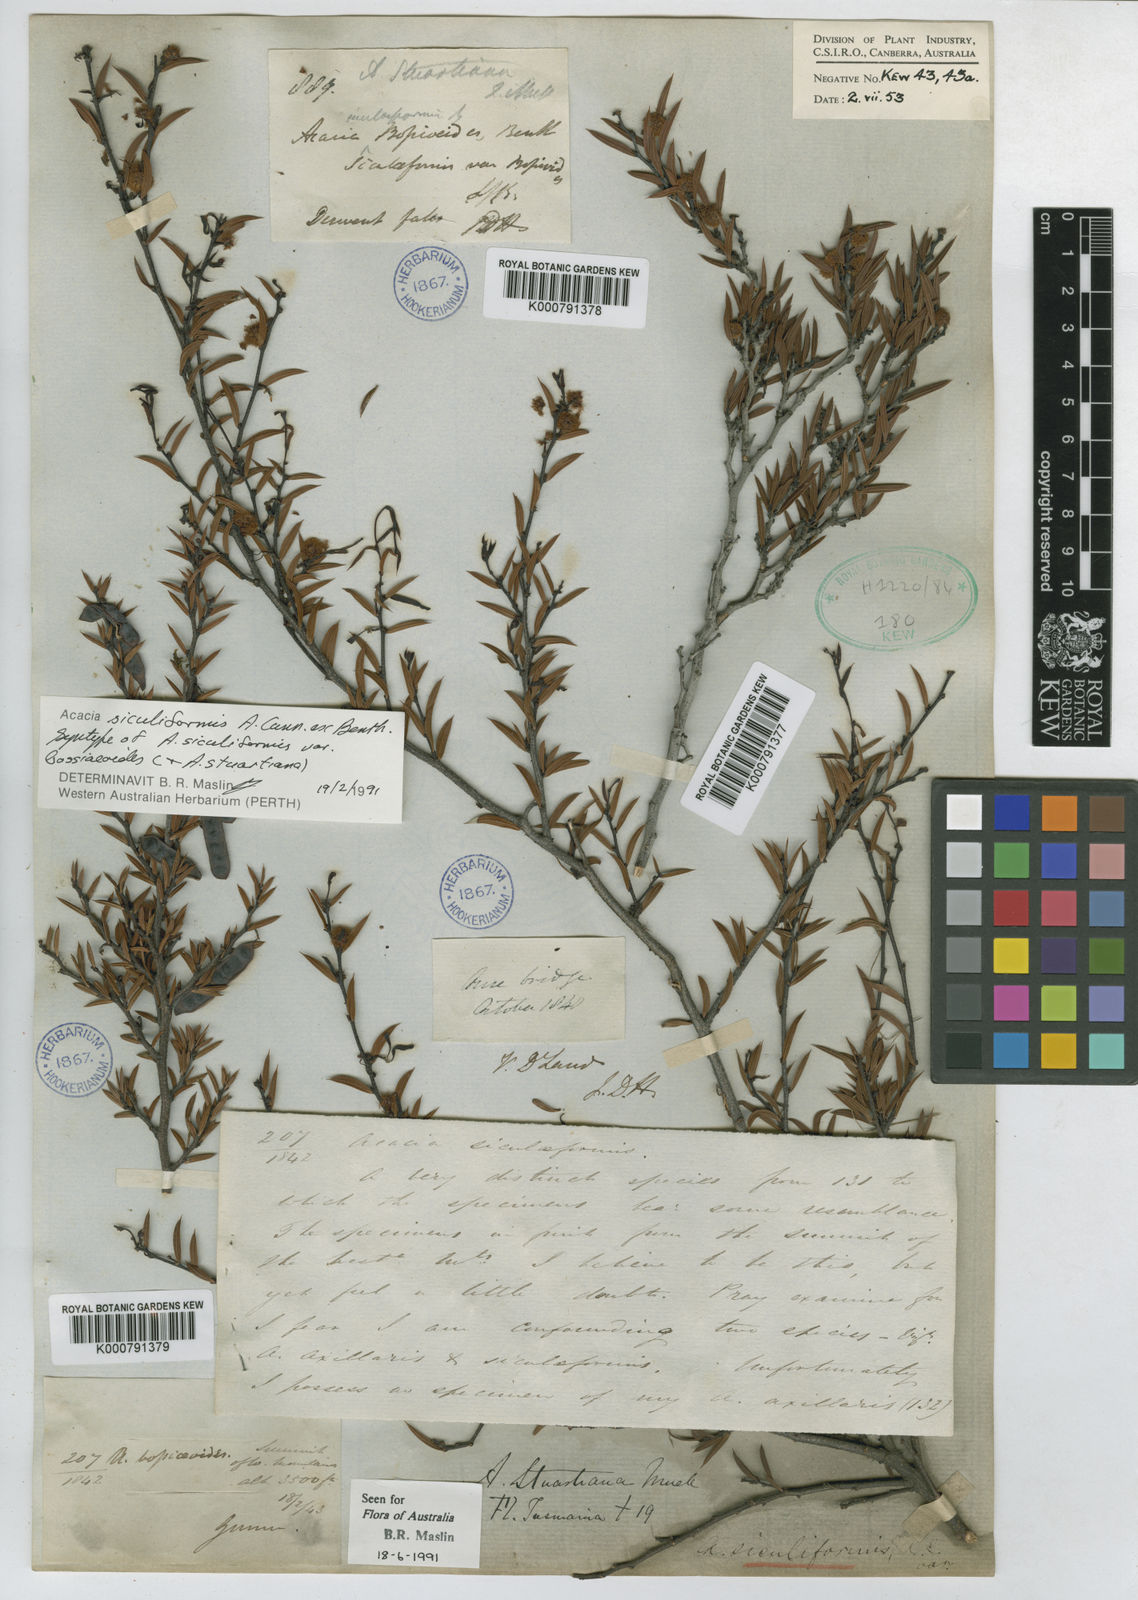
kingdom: Plantae
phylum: Tracheophyta
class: Magnoliopsida
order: Fabales
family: Fabaceae
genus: Acacia
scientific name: Acacia
